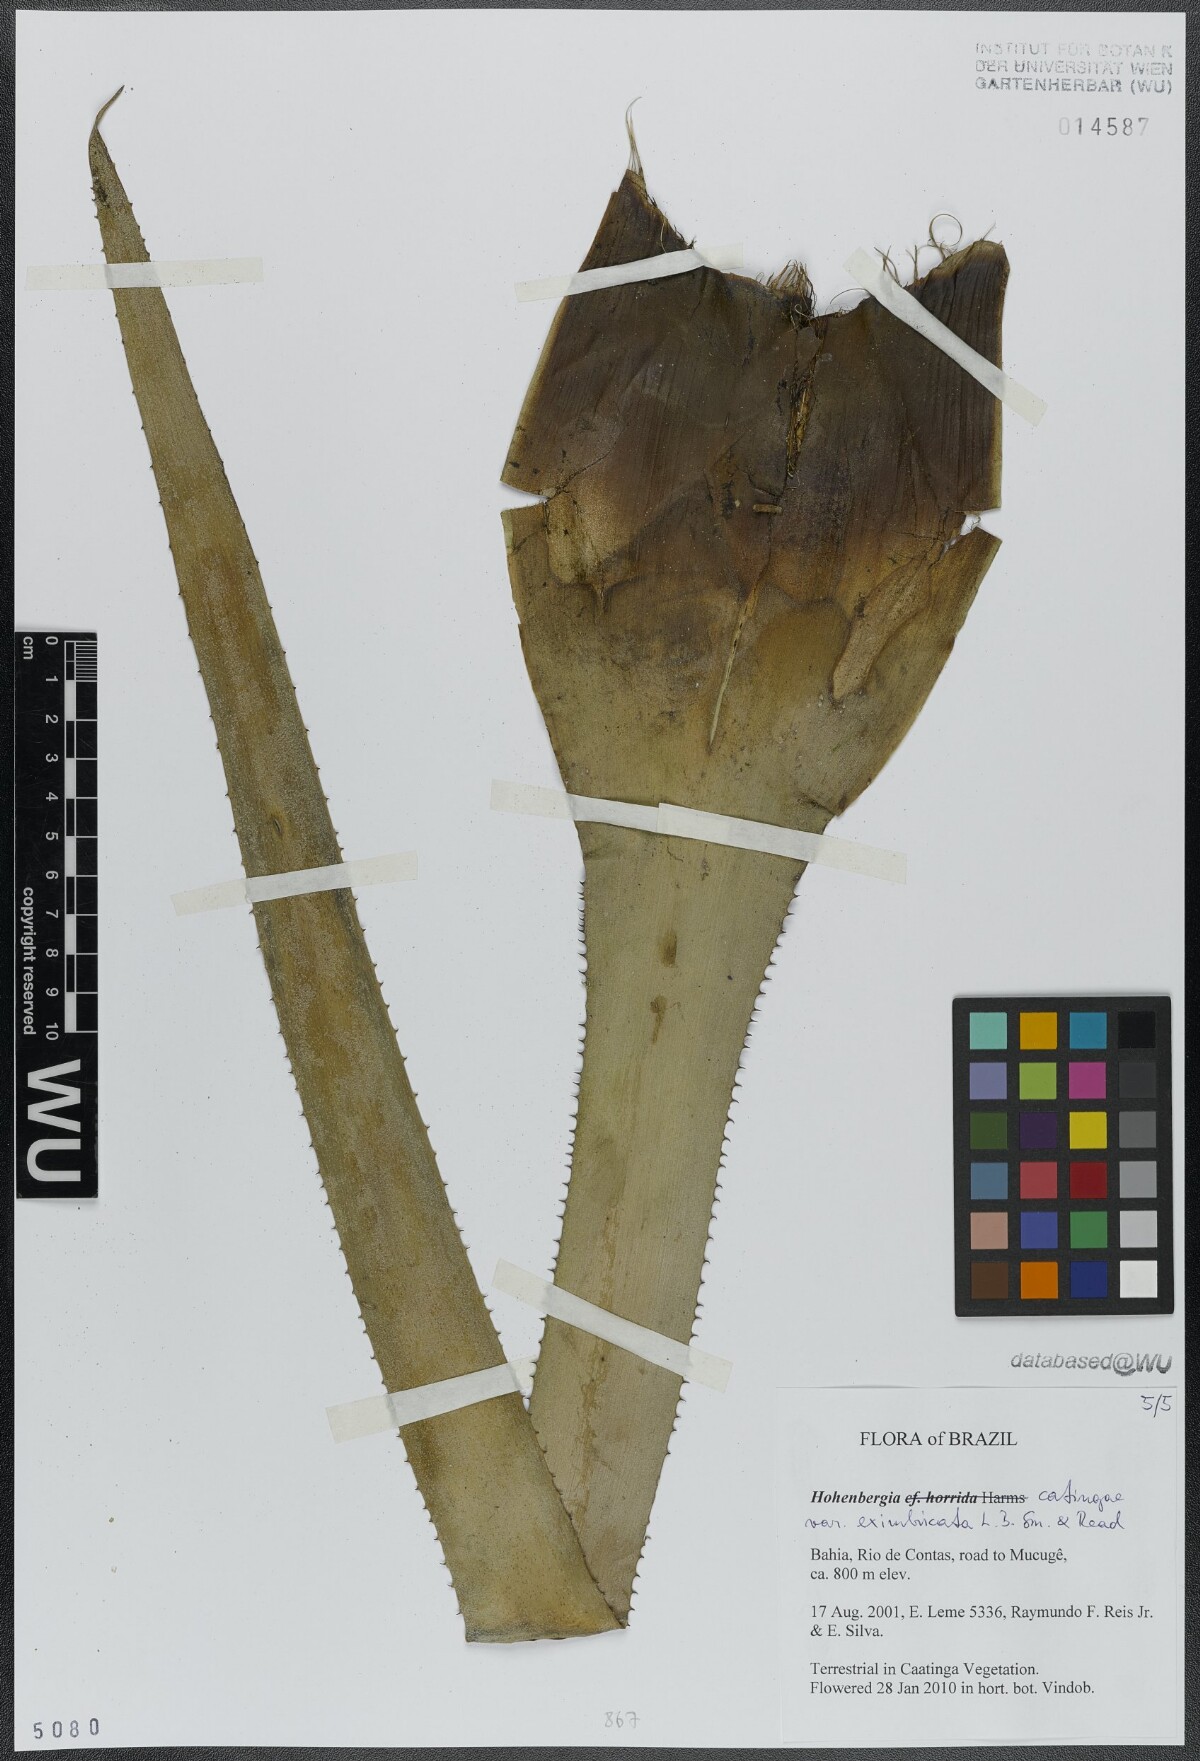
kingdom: Plantae
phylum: Tracheophyta
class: Liliopsida
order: Poales
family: Bromeliaceae
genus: Hohenbergia
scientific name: Hohenbergia catingae
